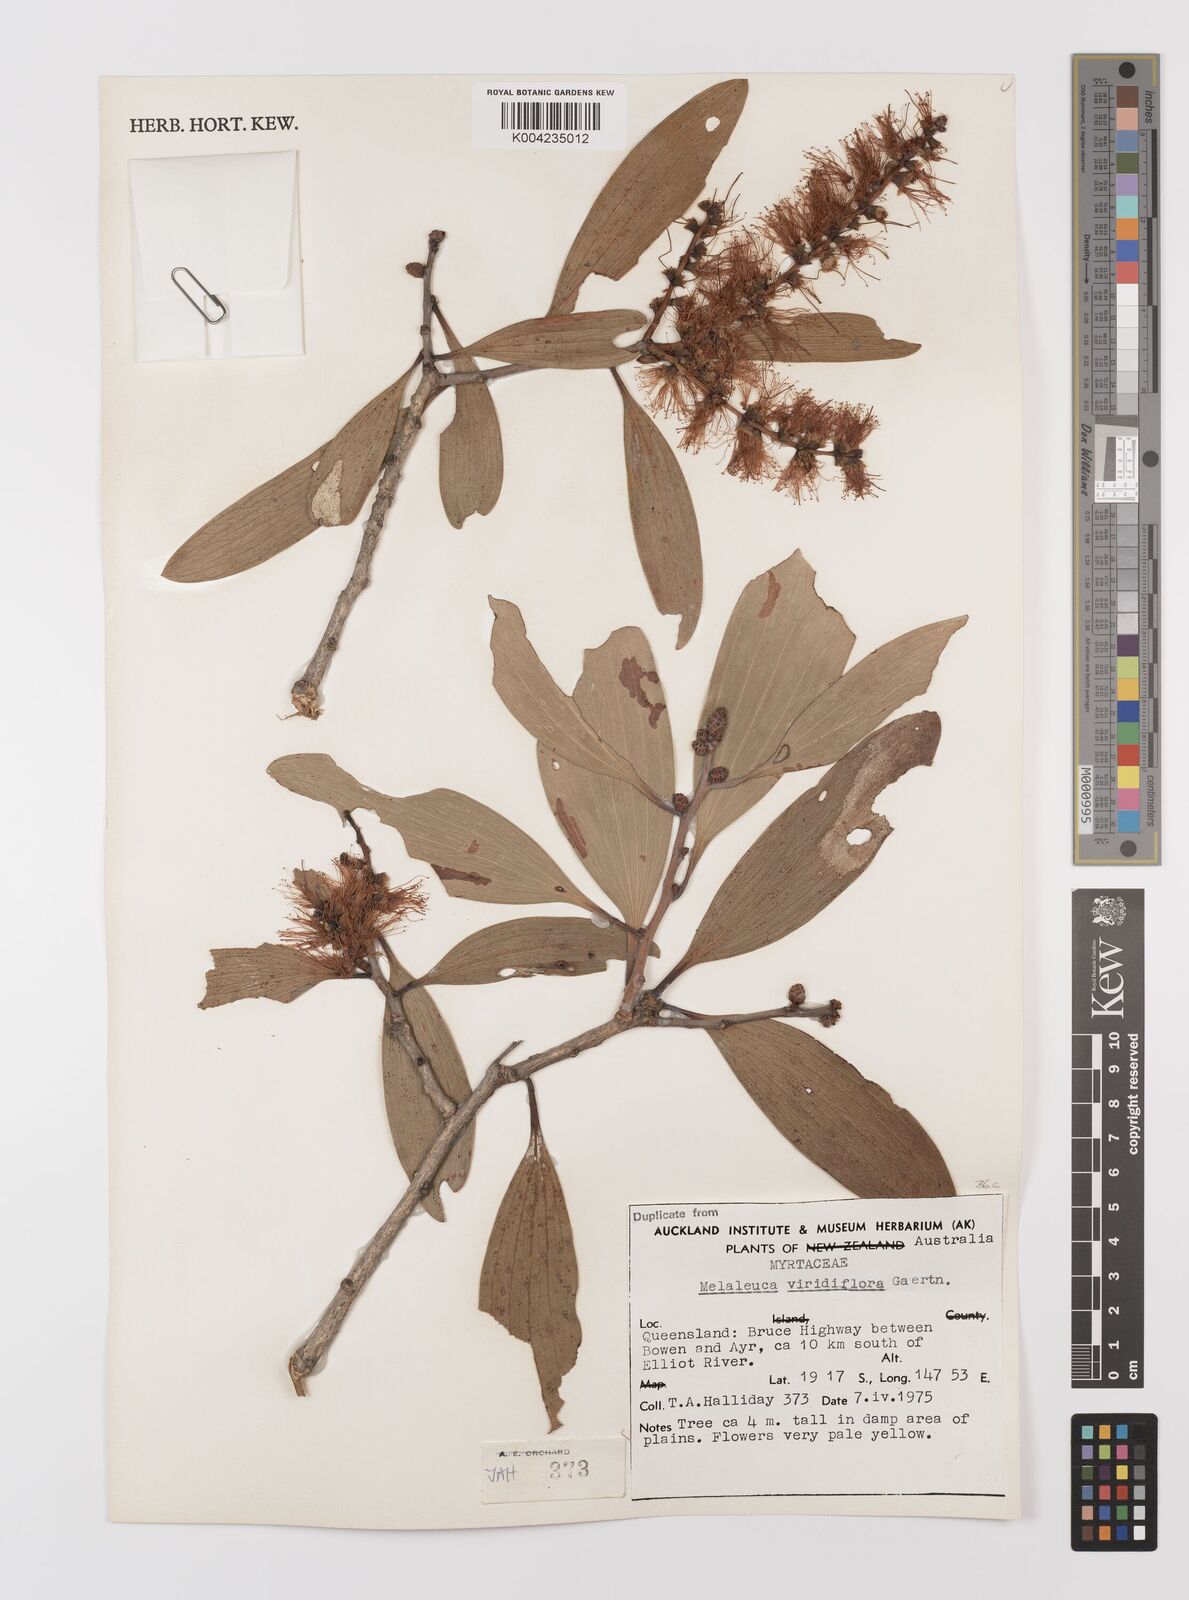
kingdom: Plantae
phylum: Tracheophyta
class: Magnoliopsida
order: Myrtales
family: Myrtaceae
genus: Melaleuca
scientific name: Melaleuca viridiflora
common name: Brown-leaved paperbark
